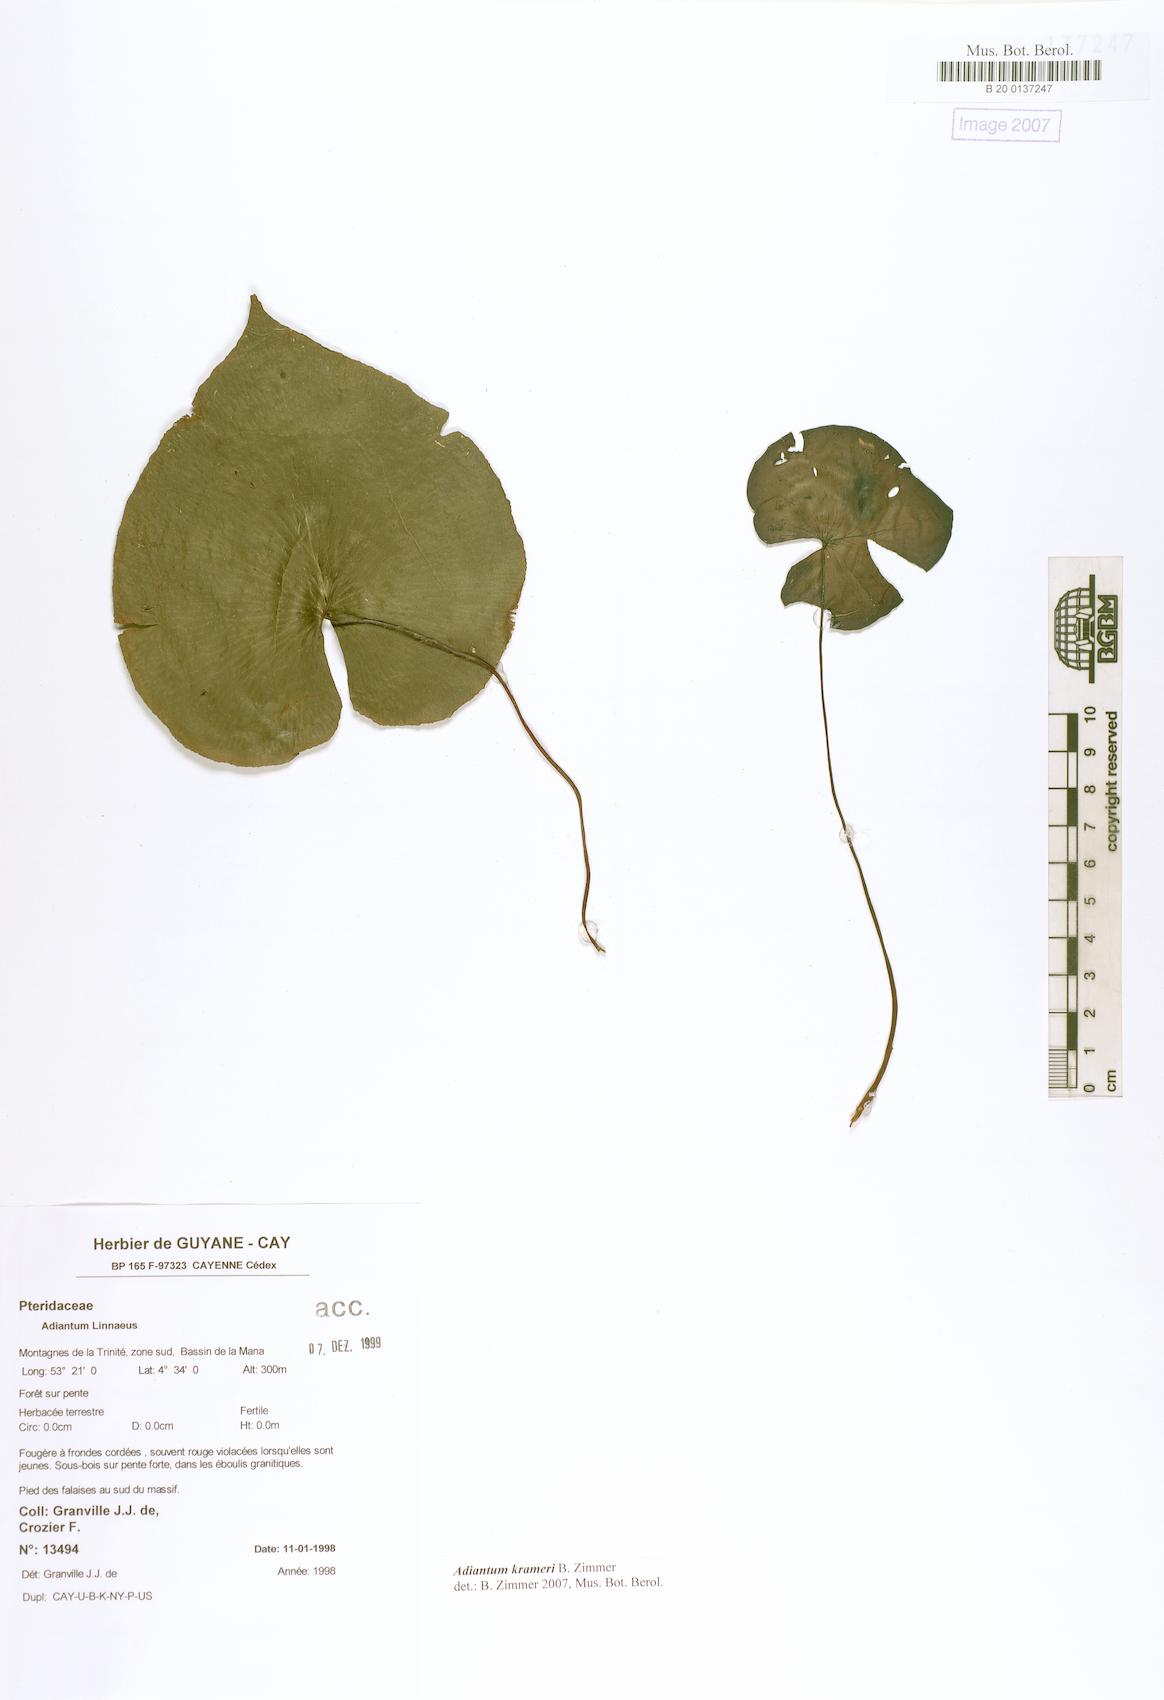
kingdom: Plantae
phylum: Tracheophyta
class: Polypodiopsida
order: Polypodiales
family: Pteridaceae
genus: Adiantum
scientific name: Adiantum krameri
